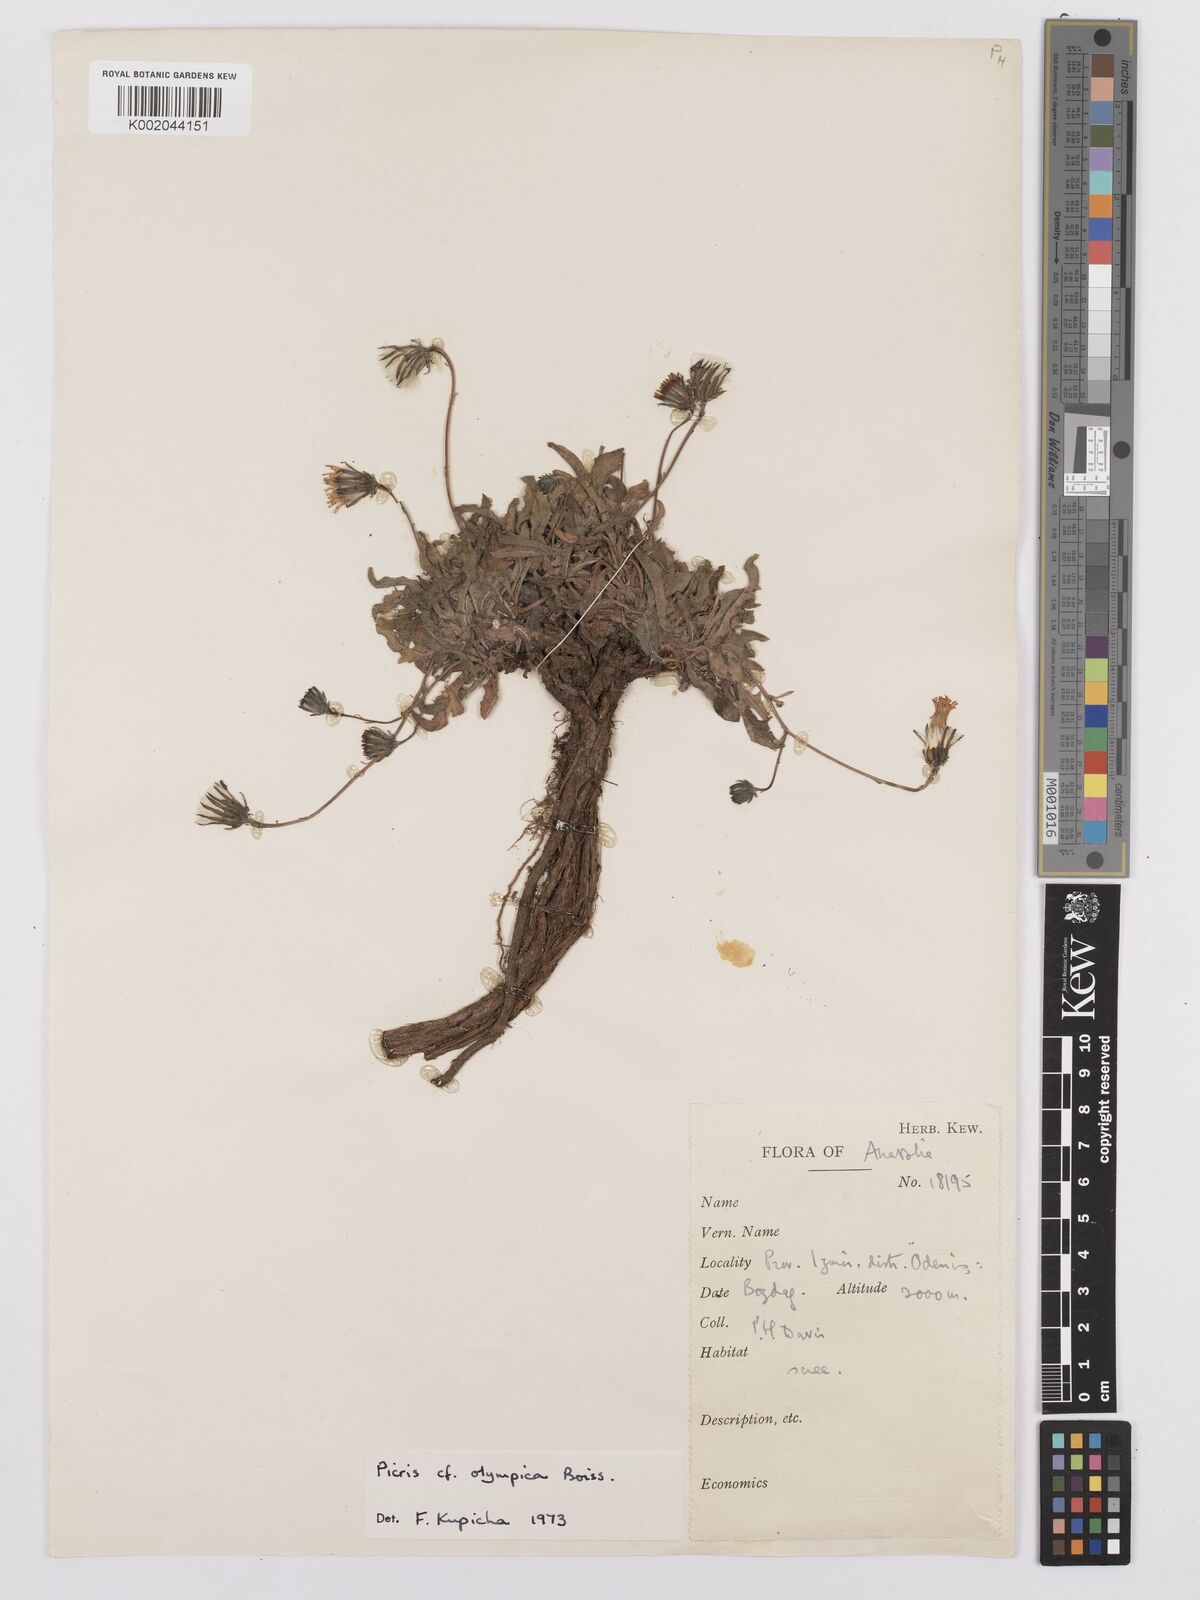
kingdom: Plantae
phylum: Tracheophyta
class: Magnoliopsida
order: Asterales
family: Asteraceae
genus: Picris
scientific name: Picris
